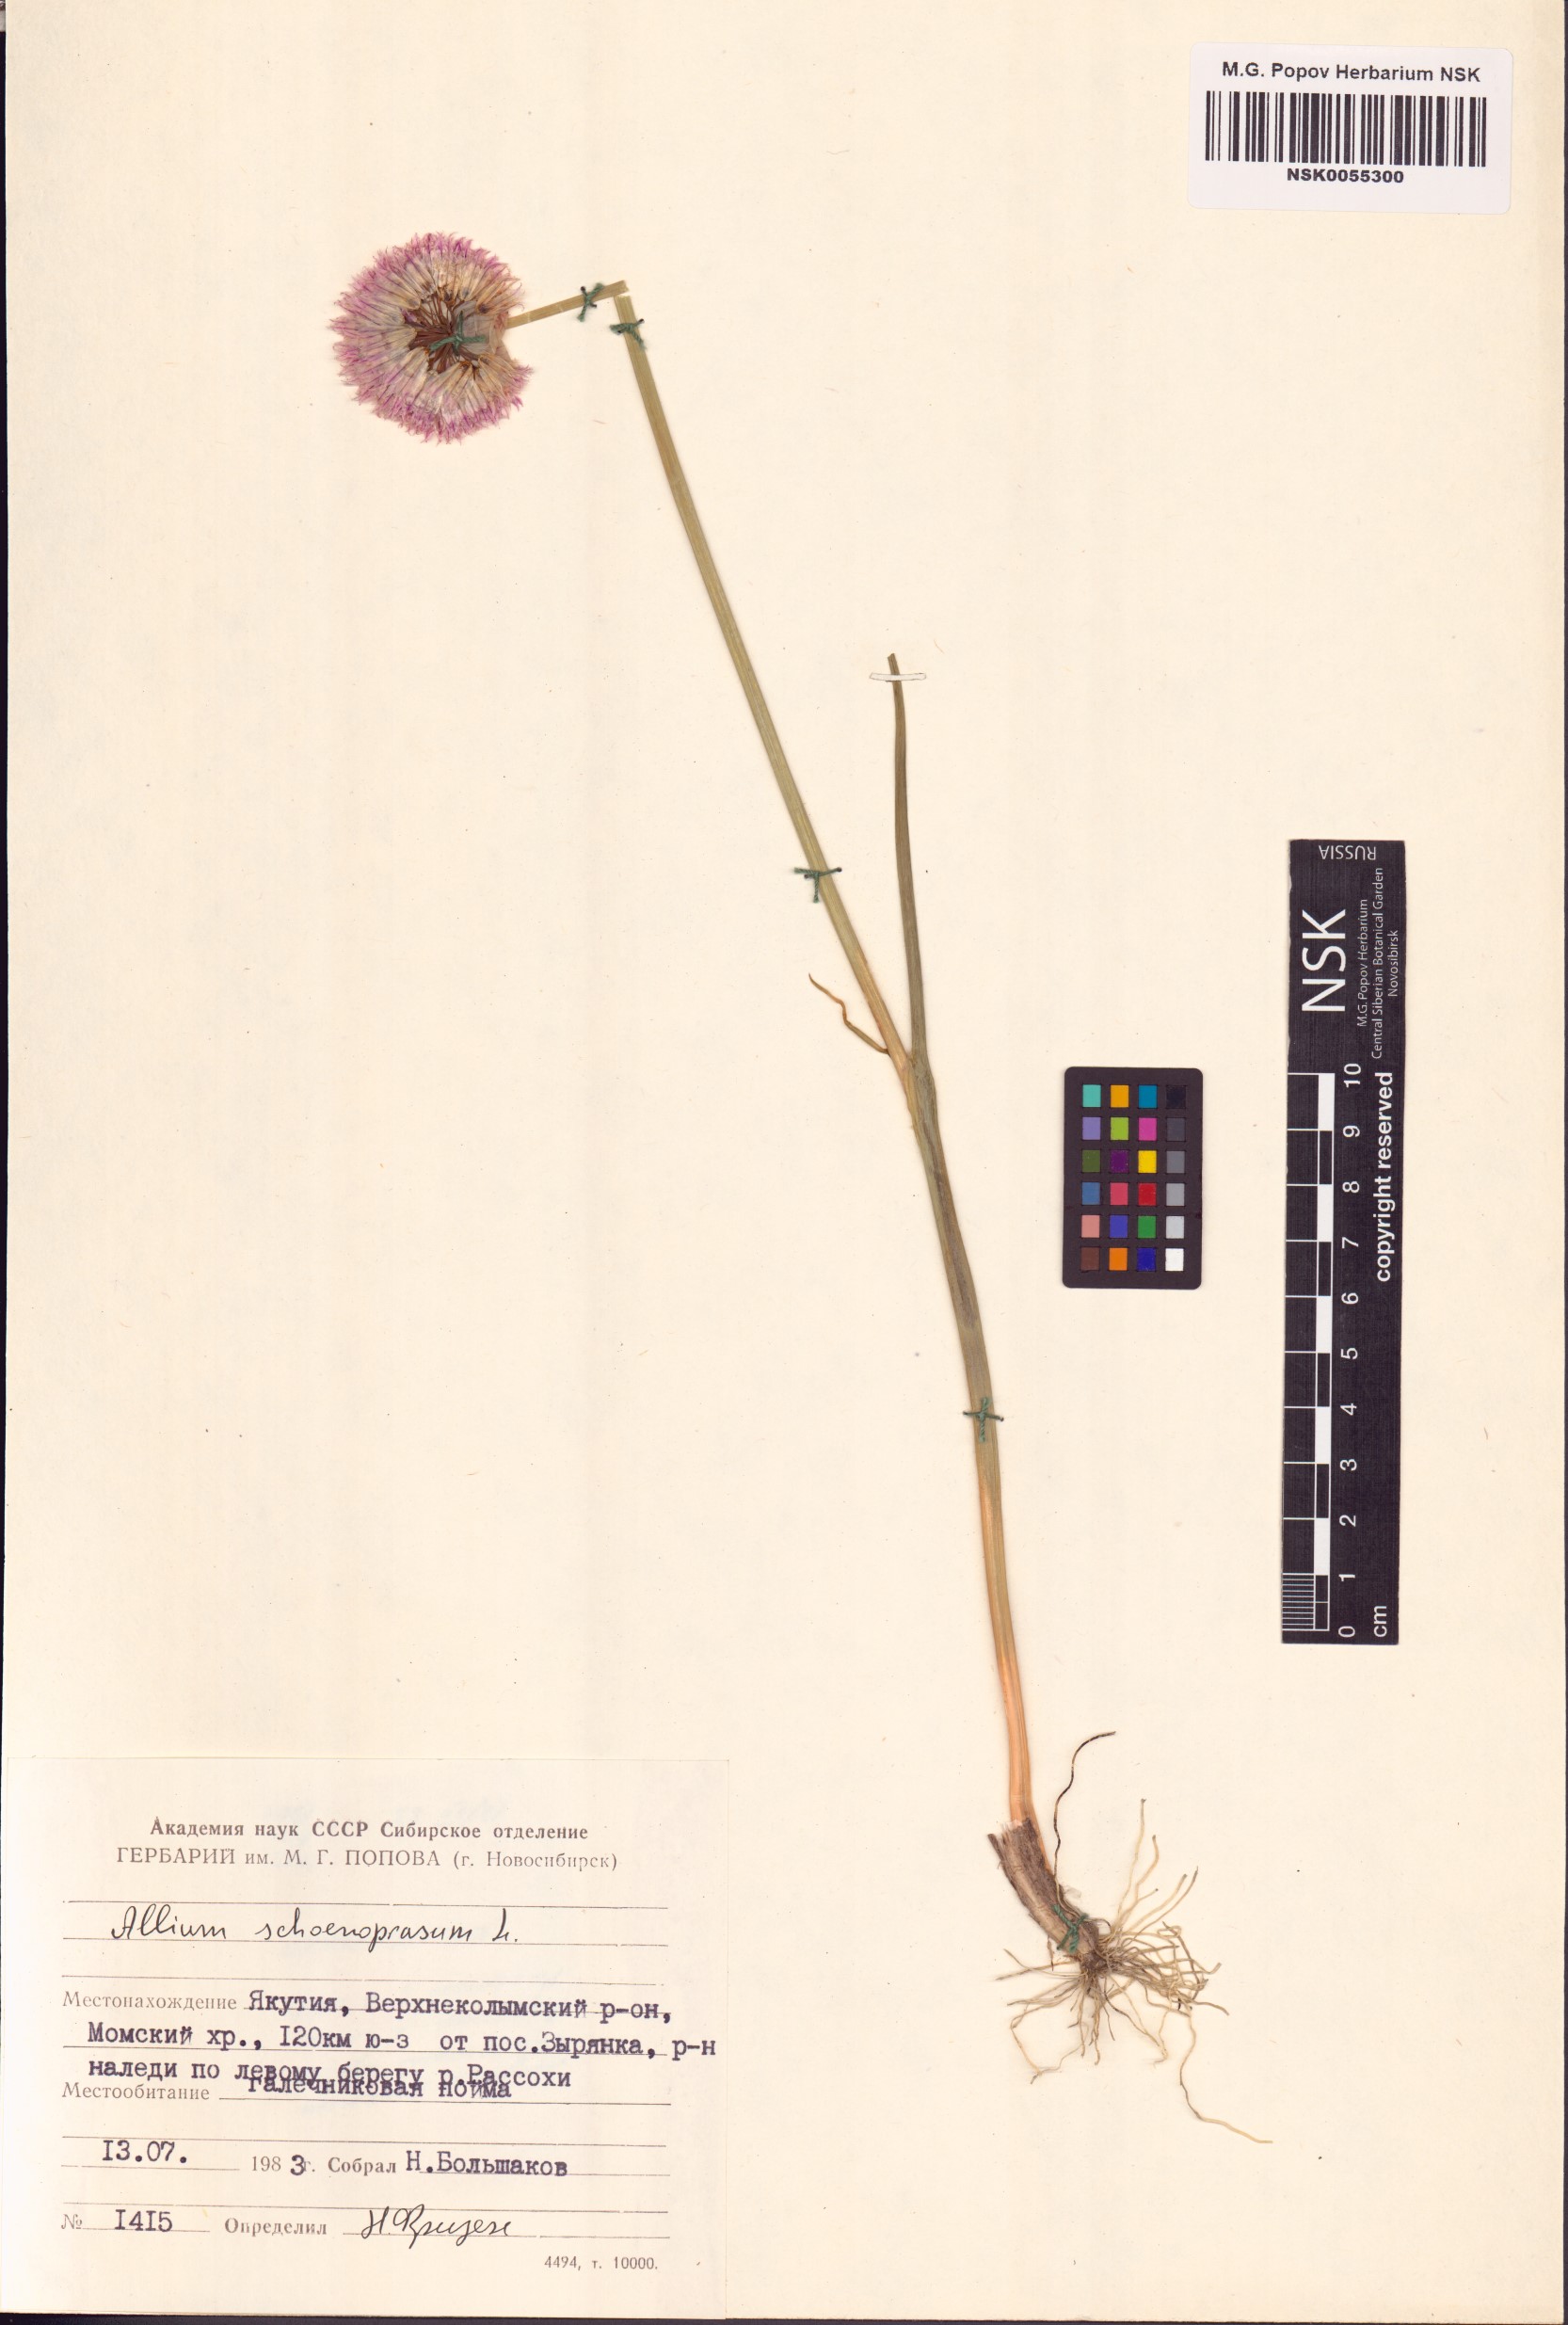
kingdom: Plantae
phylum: Tracheophyta
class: Liliopsida
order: Asparagales
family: Amaryllidaceae
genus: Allium
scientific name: Allium schoenoprasum
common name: Chives
